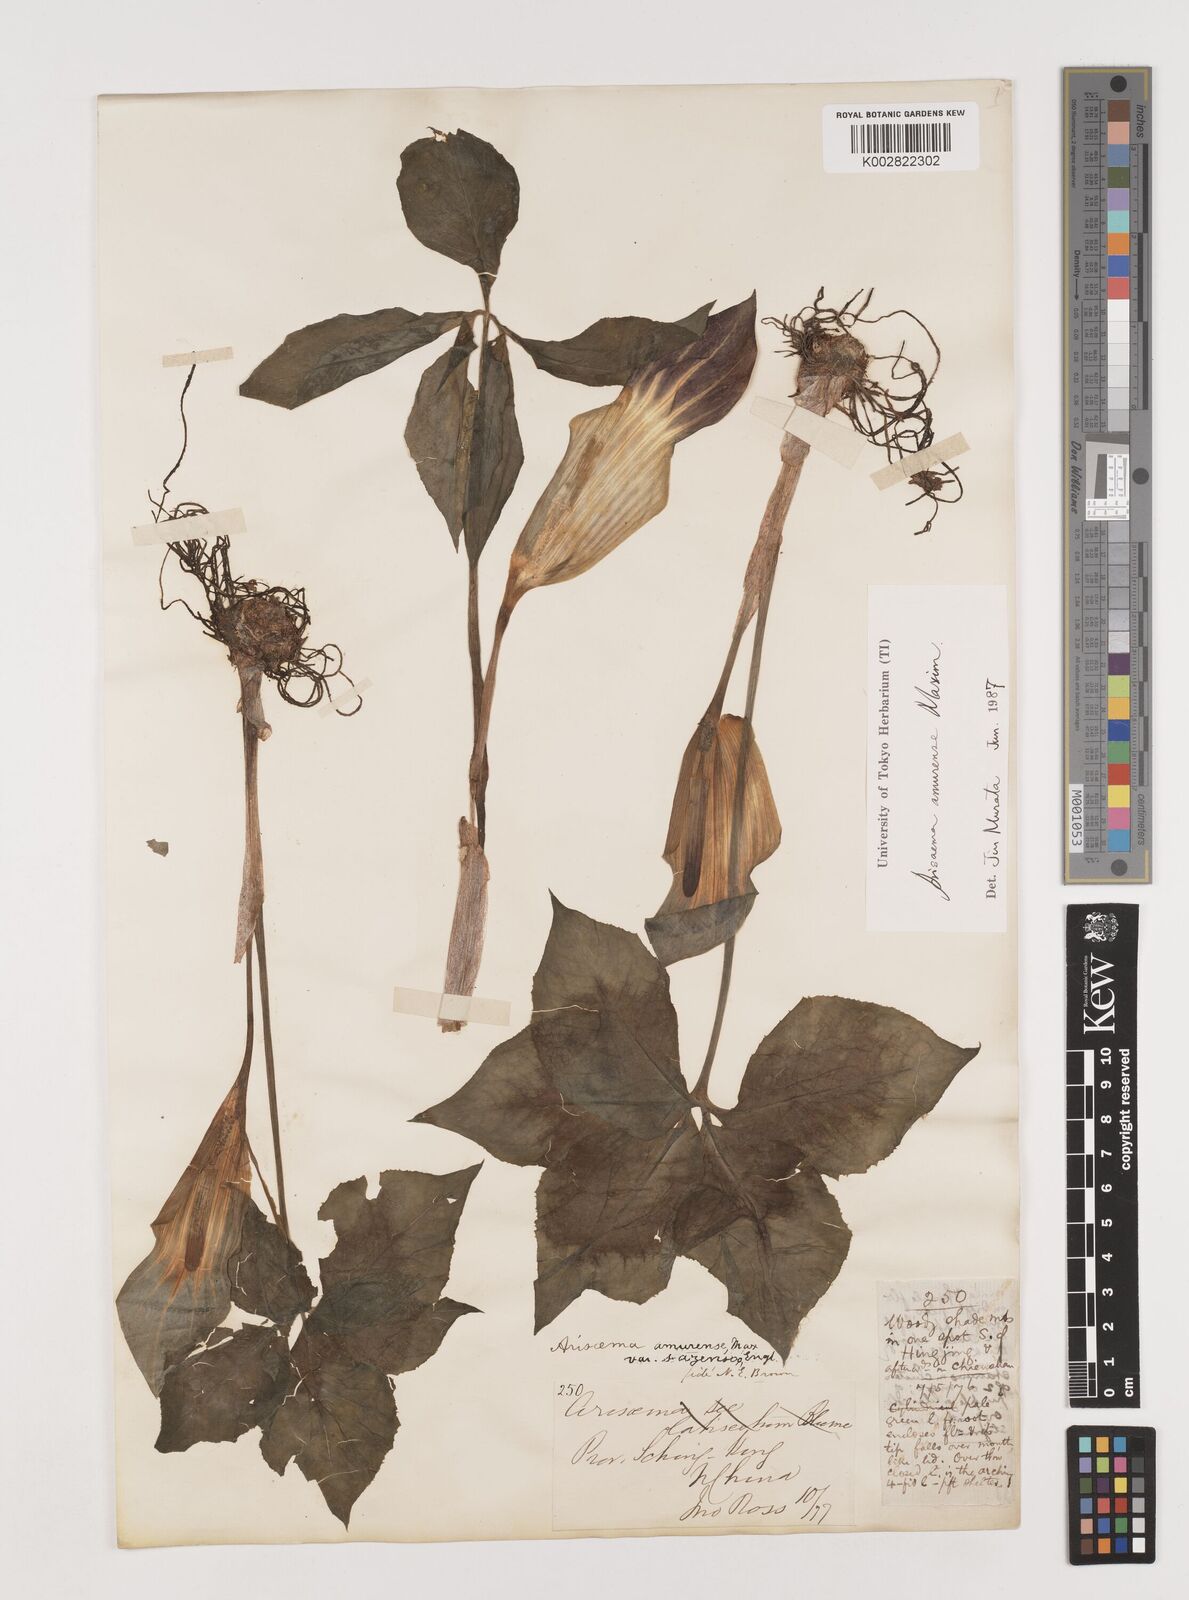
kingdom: Plantae
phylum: Tracheophyta
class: Liliopsida
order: Alismatales
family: Araceae
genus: Arisaema
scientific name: Arisaema amurense
